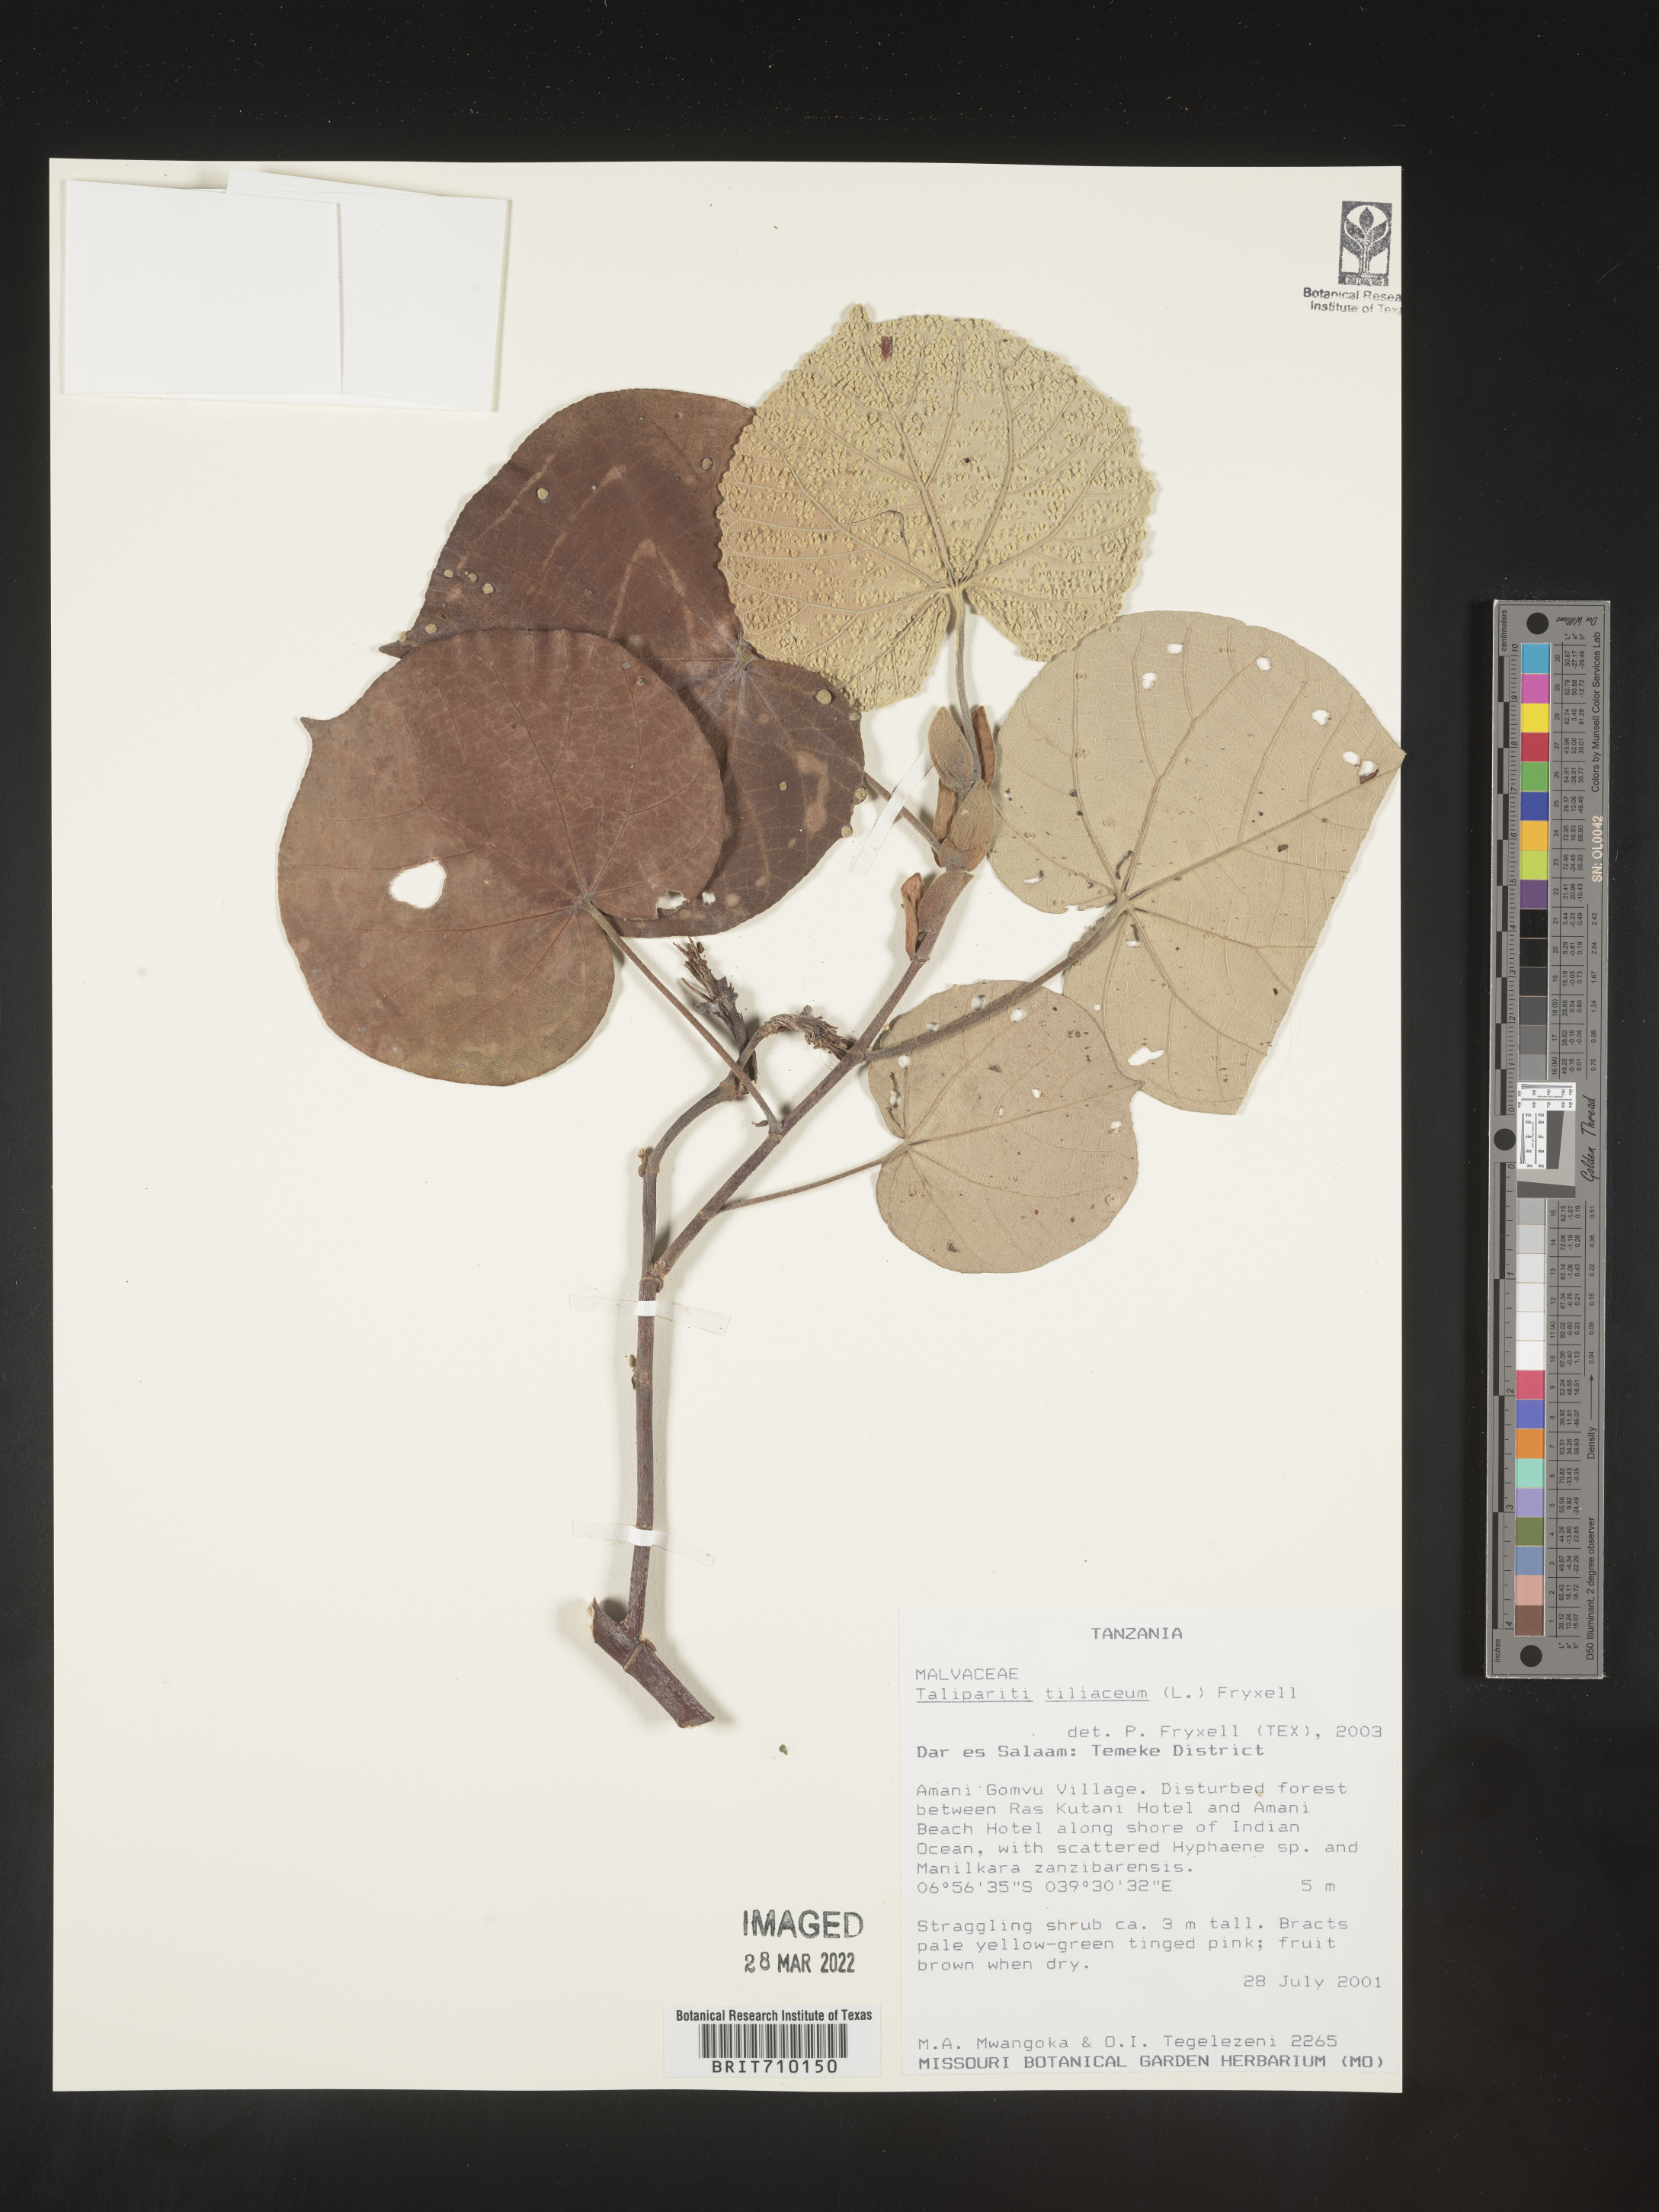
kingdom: Plantae
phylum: Tracheophyta
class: Magnoliopsida
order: Malvales
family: Malvaceae
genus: Talipariti
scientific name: Talipariti
